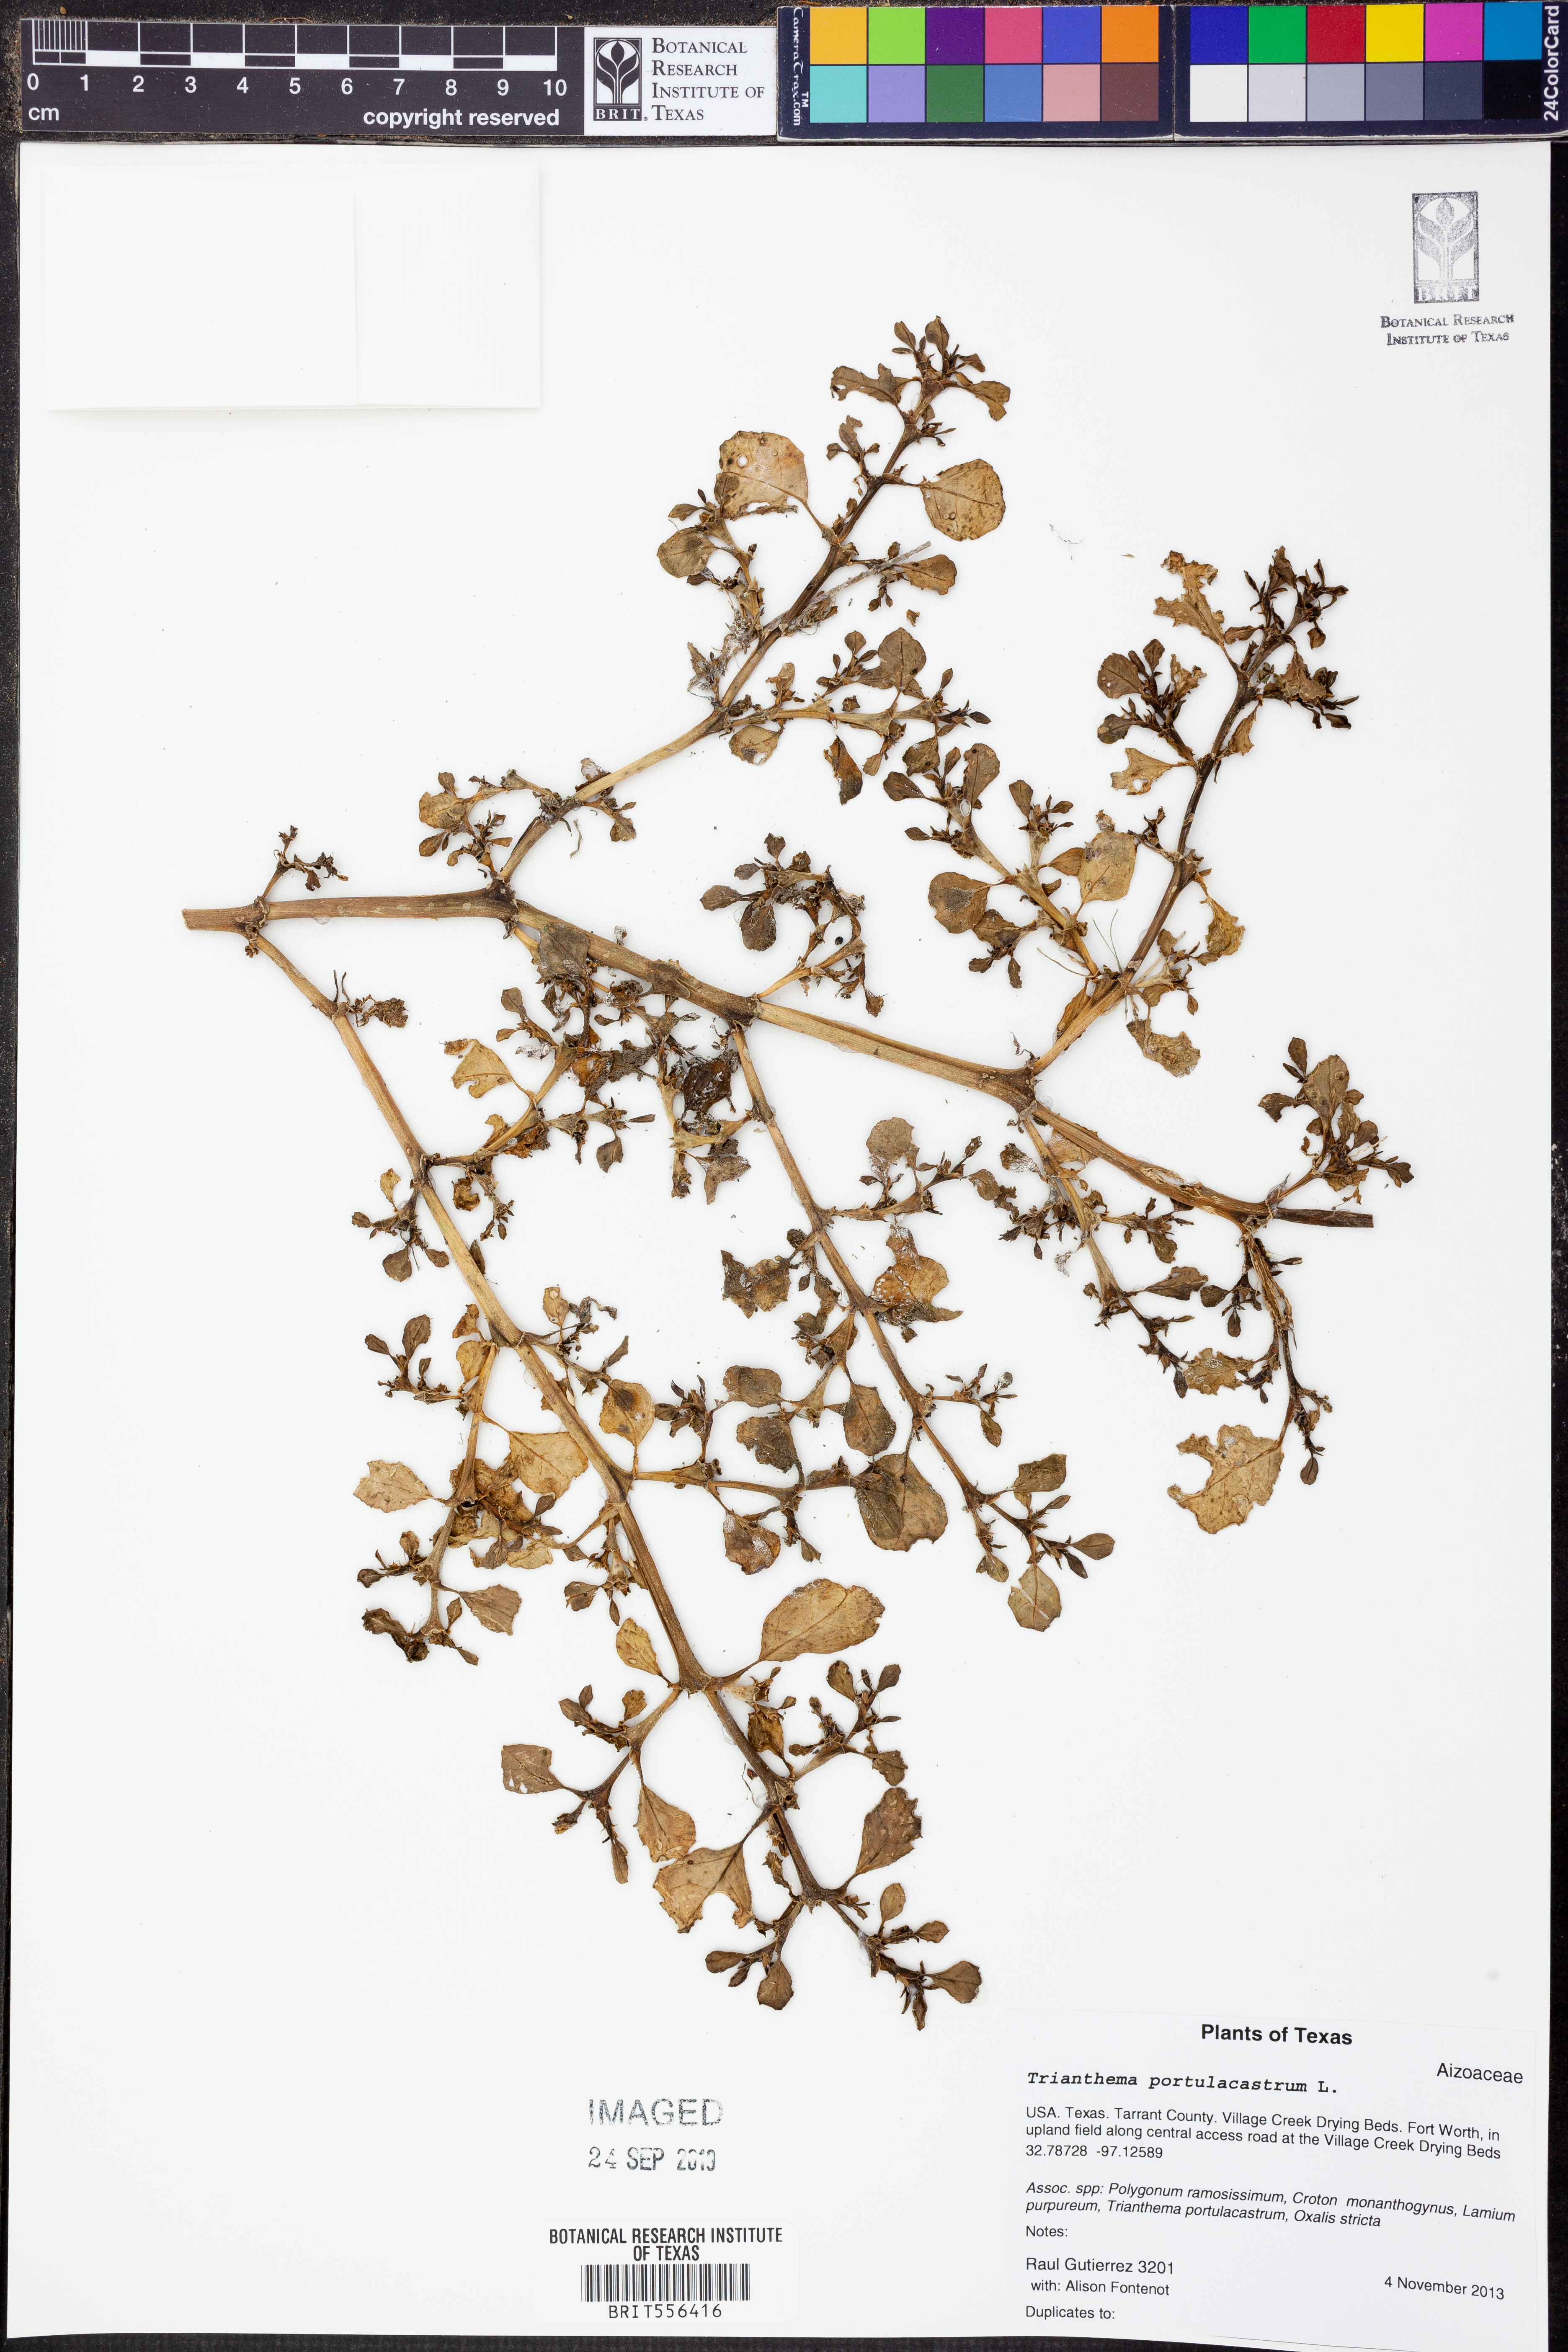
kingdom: Plantae
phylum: Tracheophyta
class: Magnoliopsida
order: Caryophyllales
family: Aizoaceae
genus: Trianthema
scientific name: Trianthema portulacastrum
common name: Desert horsepurslane
